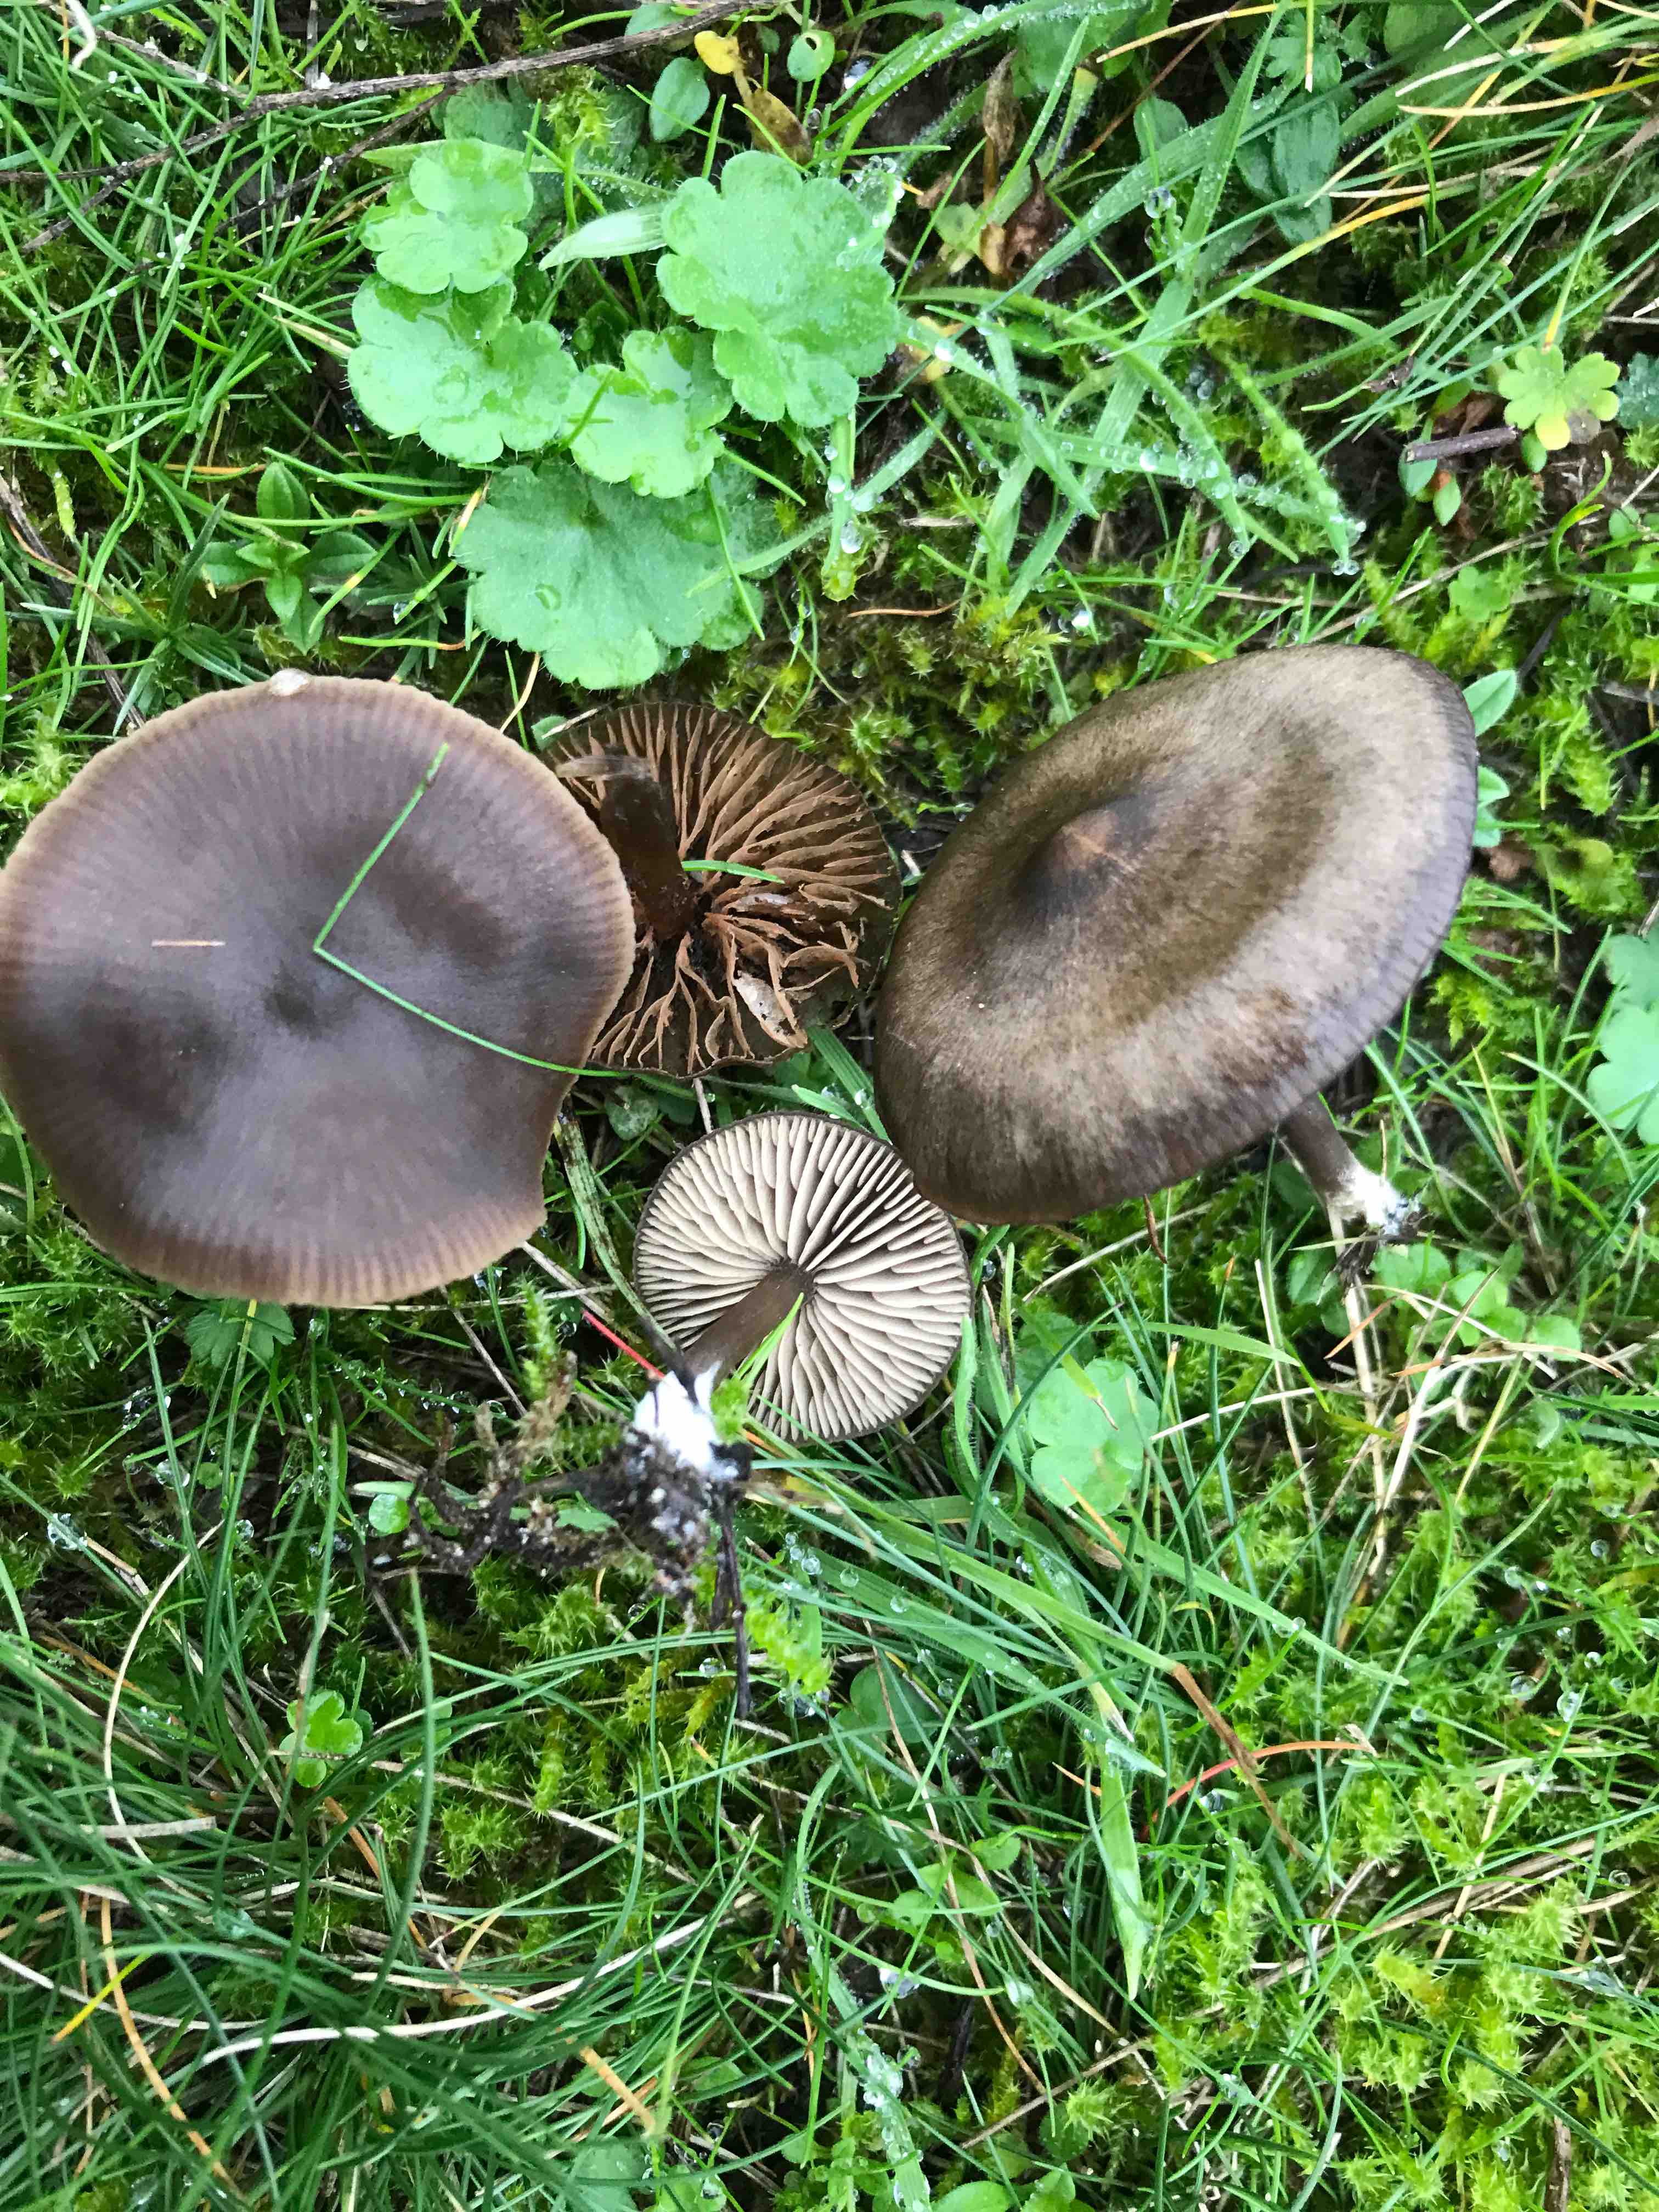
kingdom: Fungi
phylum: Basidiomycota
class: Agaricomycetes
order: Agaricales
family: Entolomataceae
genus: Entoloma
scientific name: Entoloma sericeum
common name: silkeglinsende rødblad
